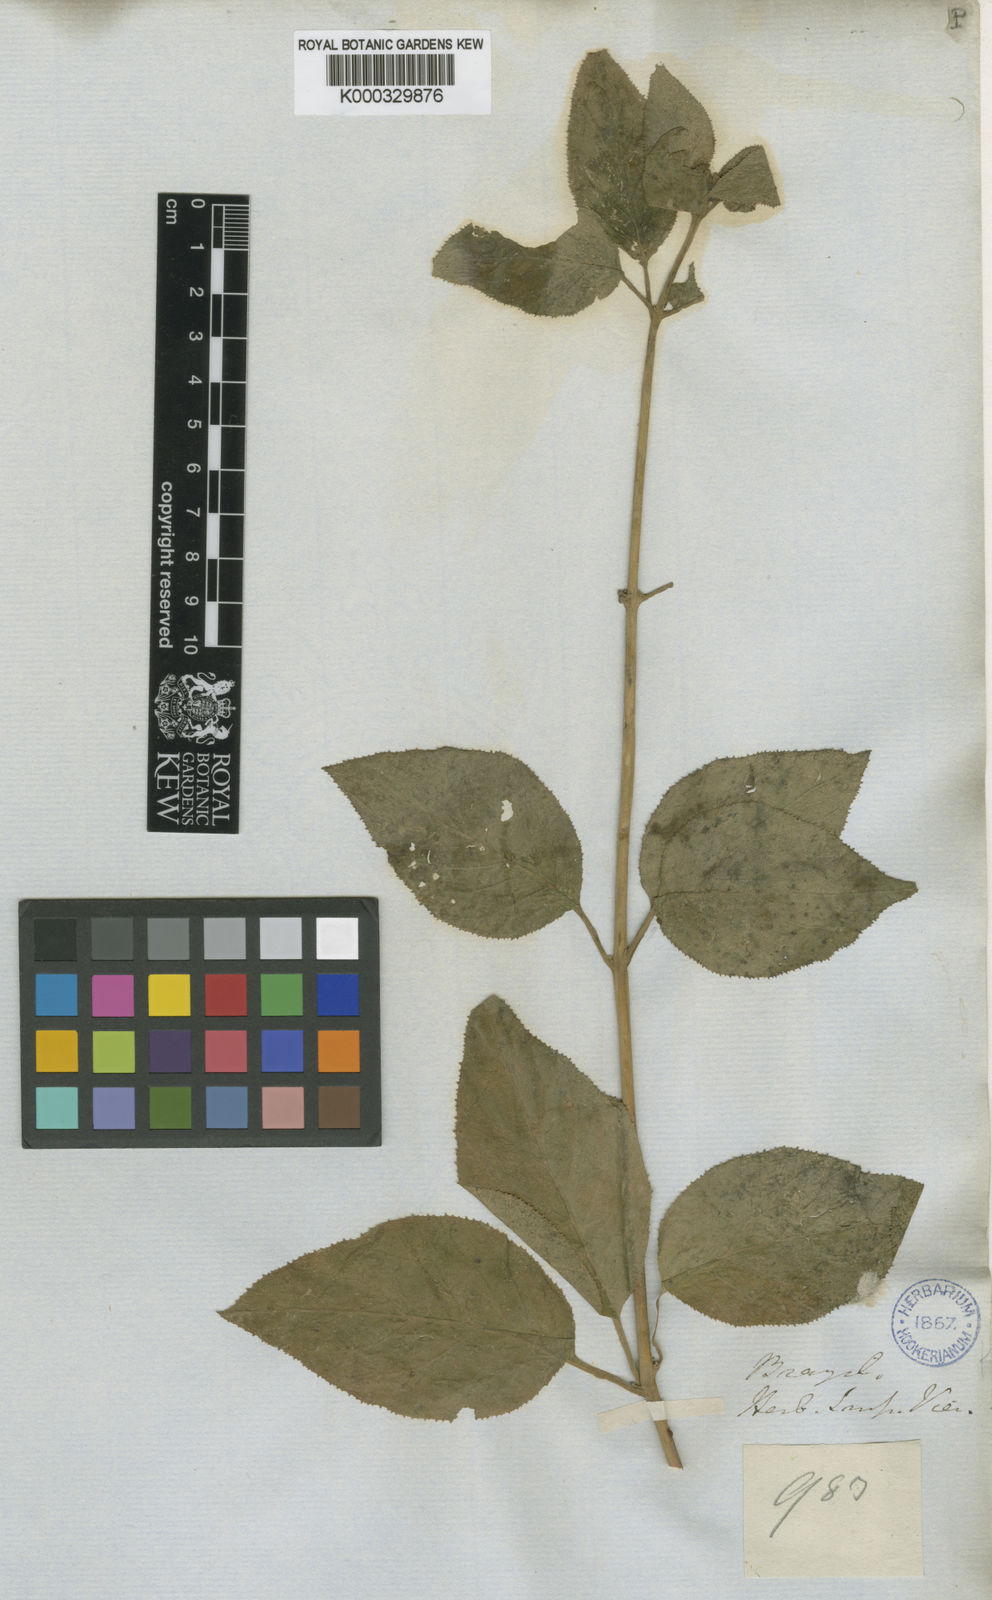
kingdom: Plantae
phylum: Tracheophyta
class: Magnoliopsida
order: Asterales
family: Campanulaceae
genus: Siphocampylus
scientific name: Siphocampylus duploserratus
